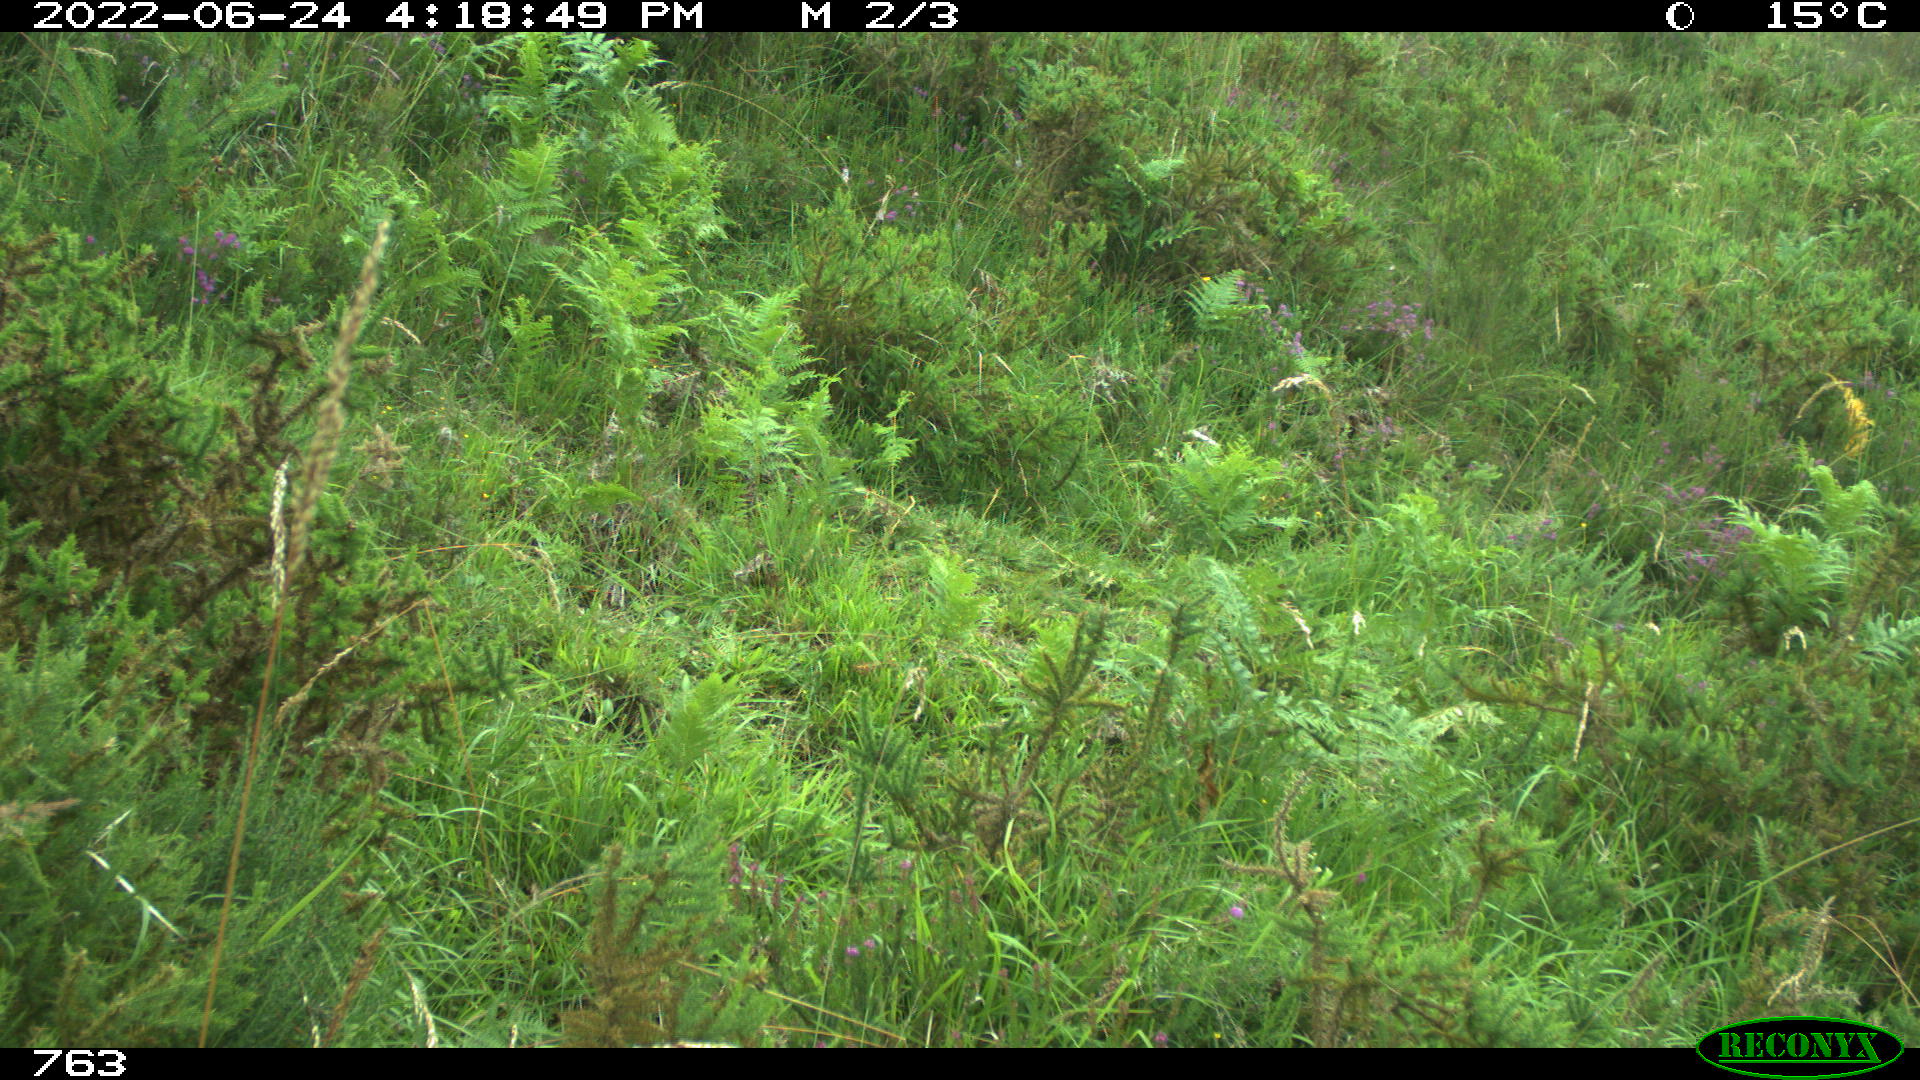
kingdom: Animalia
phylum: Chordata
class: Mammalia
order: Artiodactyla
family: Suidae
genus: Sus
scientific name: Sus scrofa
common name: Wild boar
